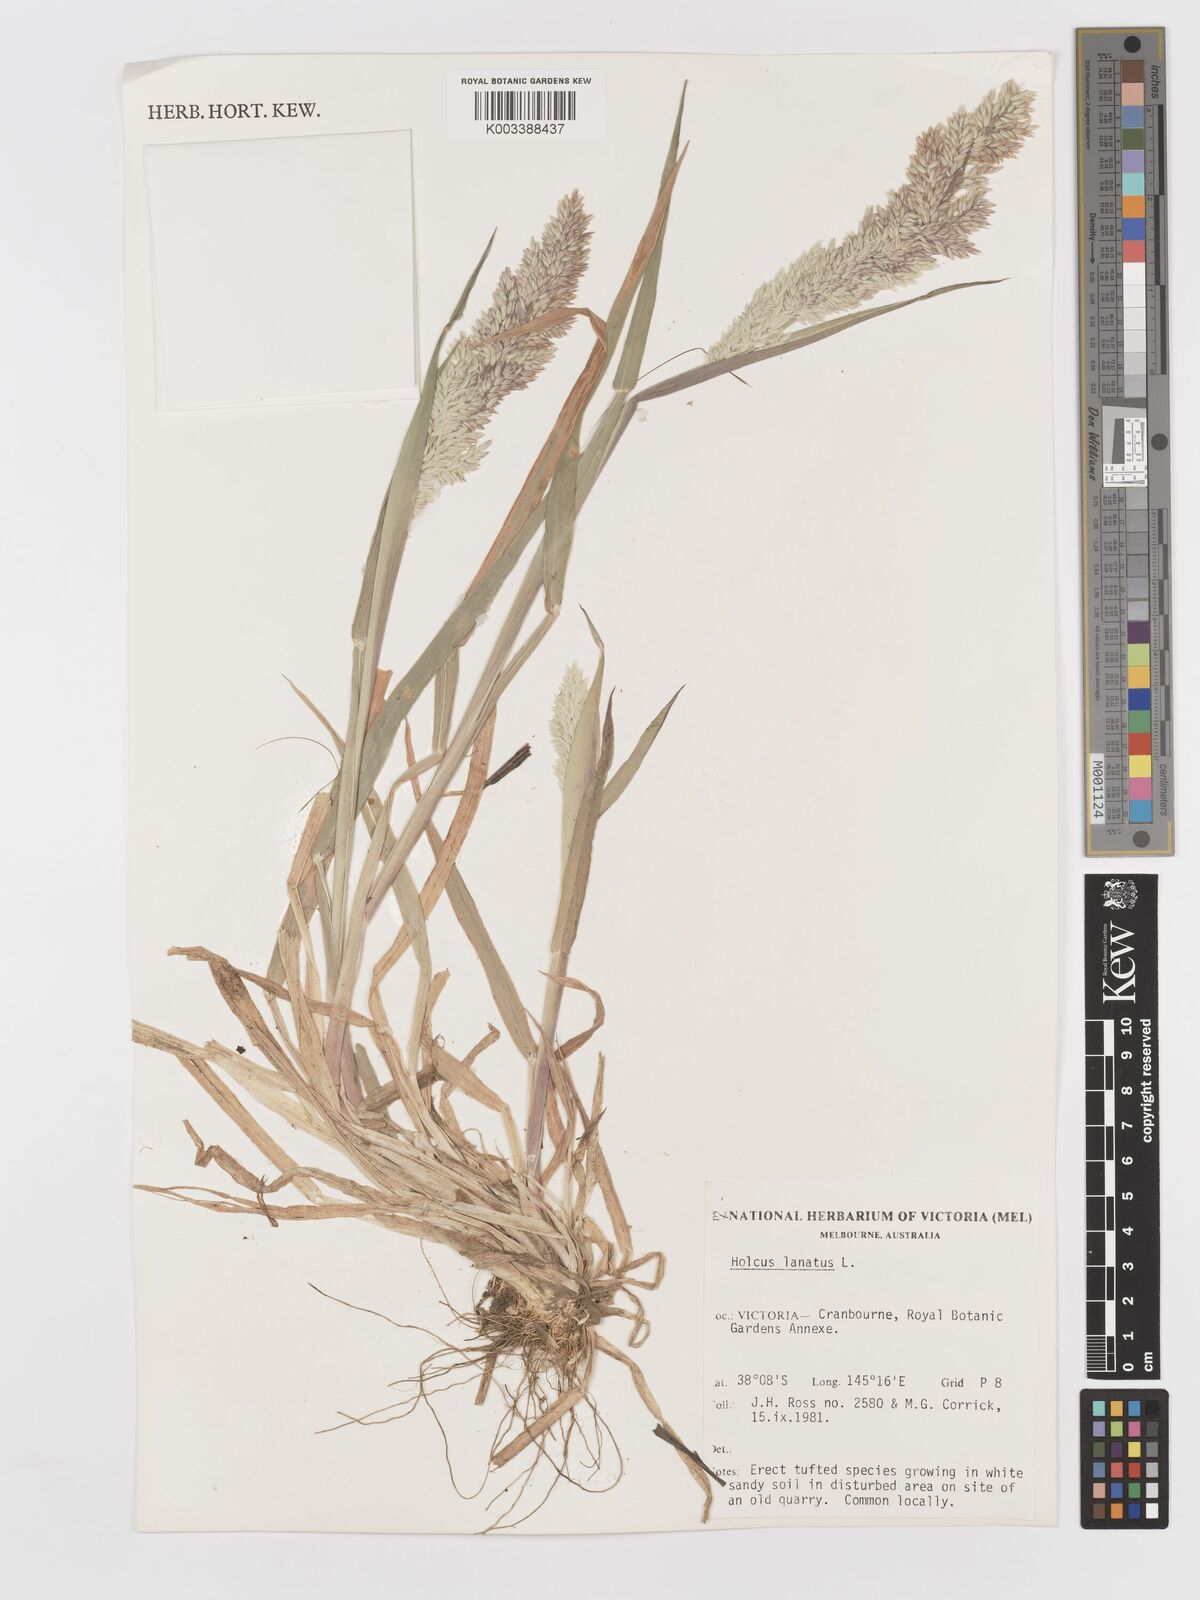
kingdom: Plantae
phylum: Tracheophyta
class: Liliopsida
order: Poales
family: Poaceae
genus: Holcus
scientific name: Holcus lanatus
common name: Yorkshire-fog
